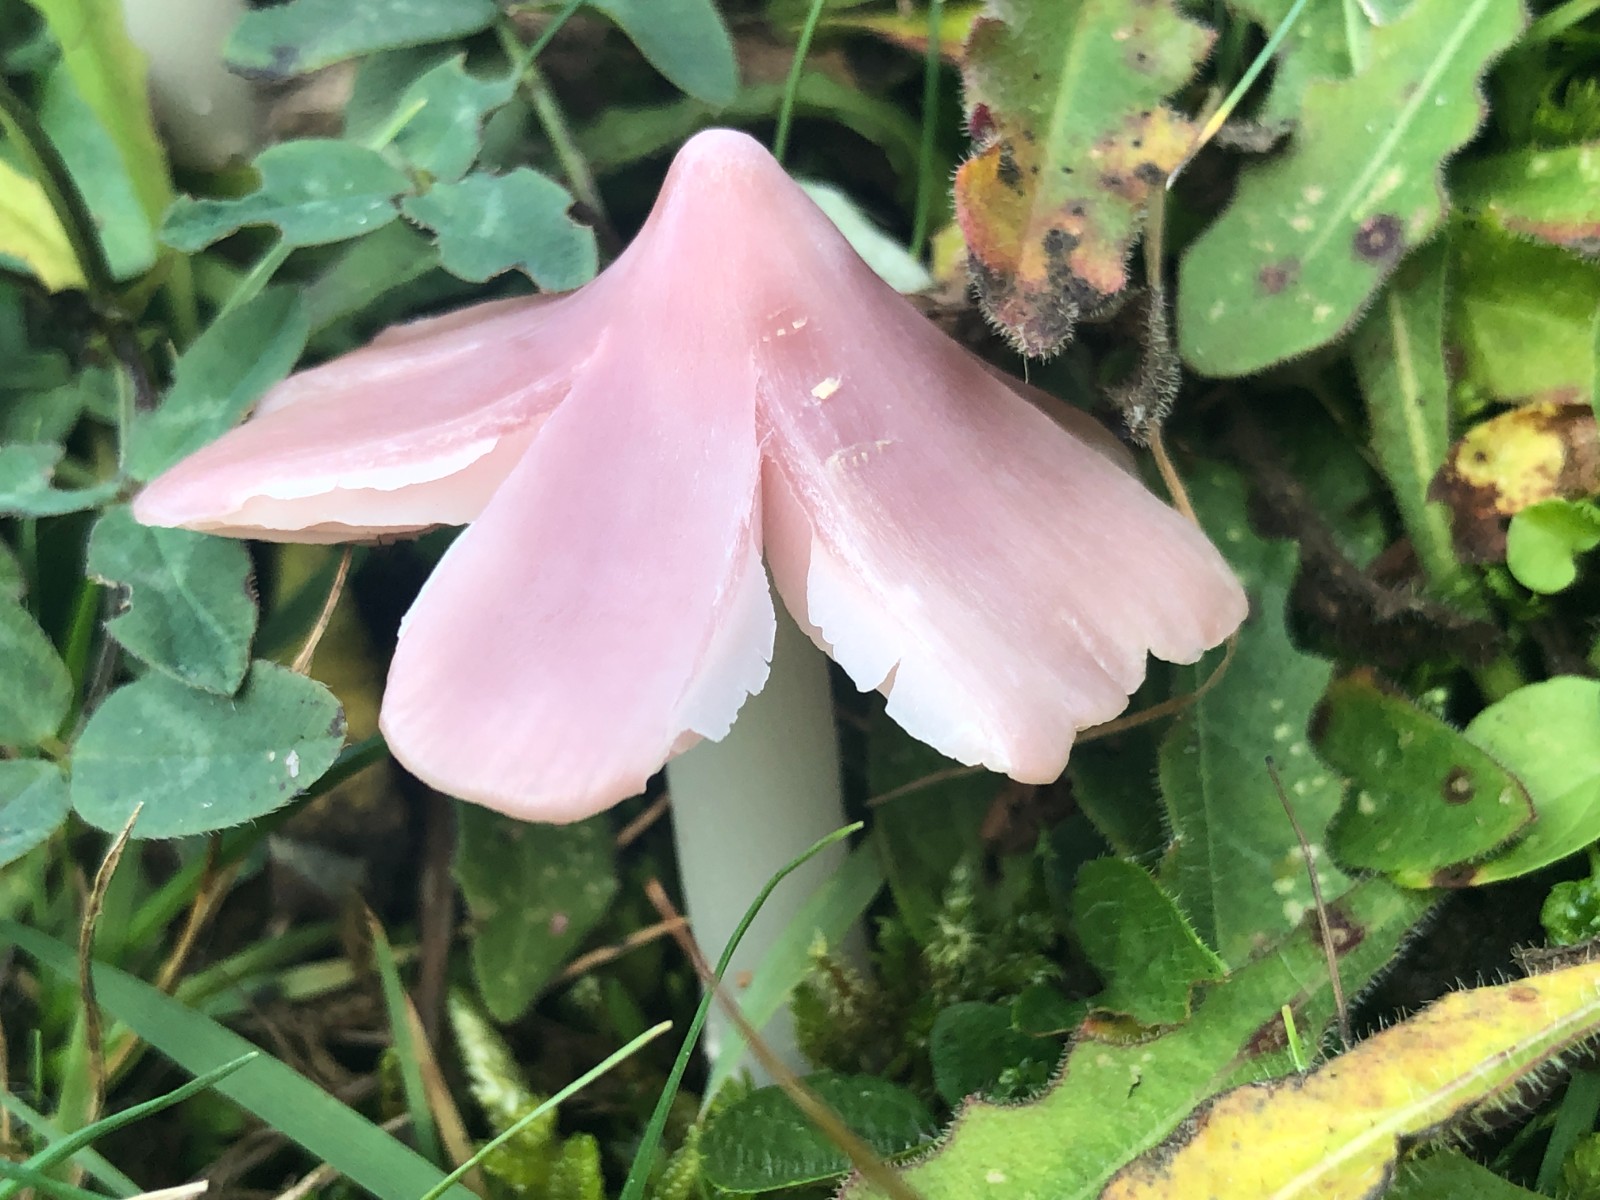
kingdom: Fungi
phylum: Basidiomycota
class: Agaricomycetes
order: Agaricales
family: Hygrophoraceae
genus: Porpolomopsis
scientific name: Porpolomopsis calyptriformis
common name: rosenrød vokshat
